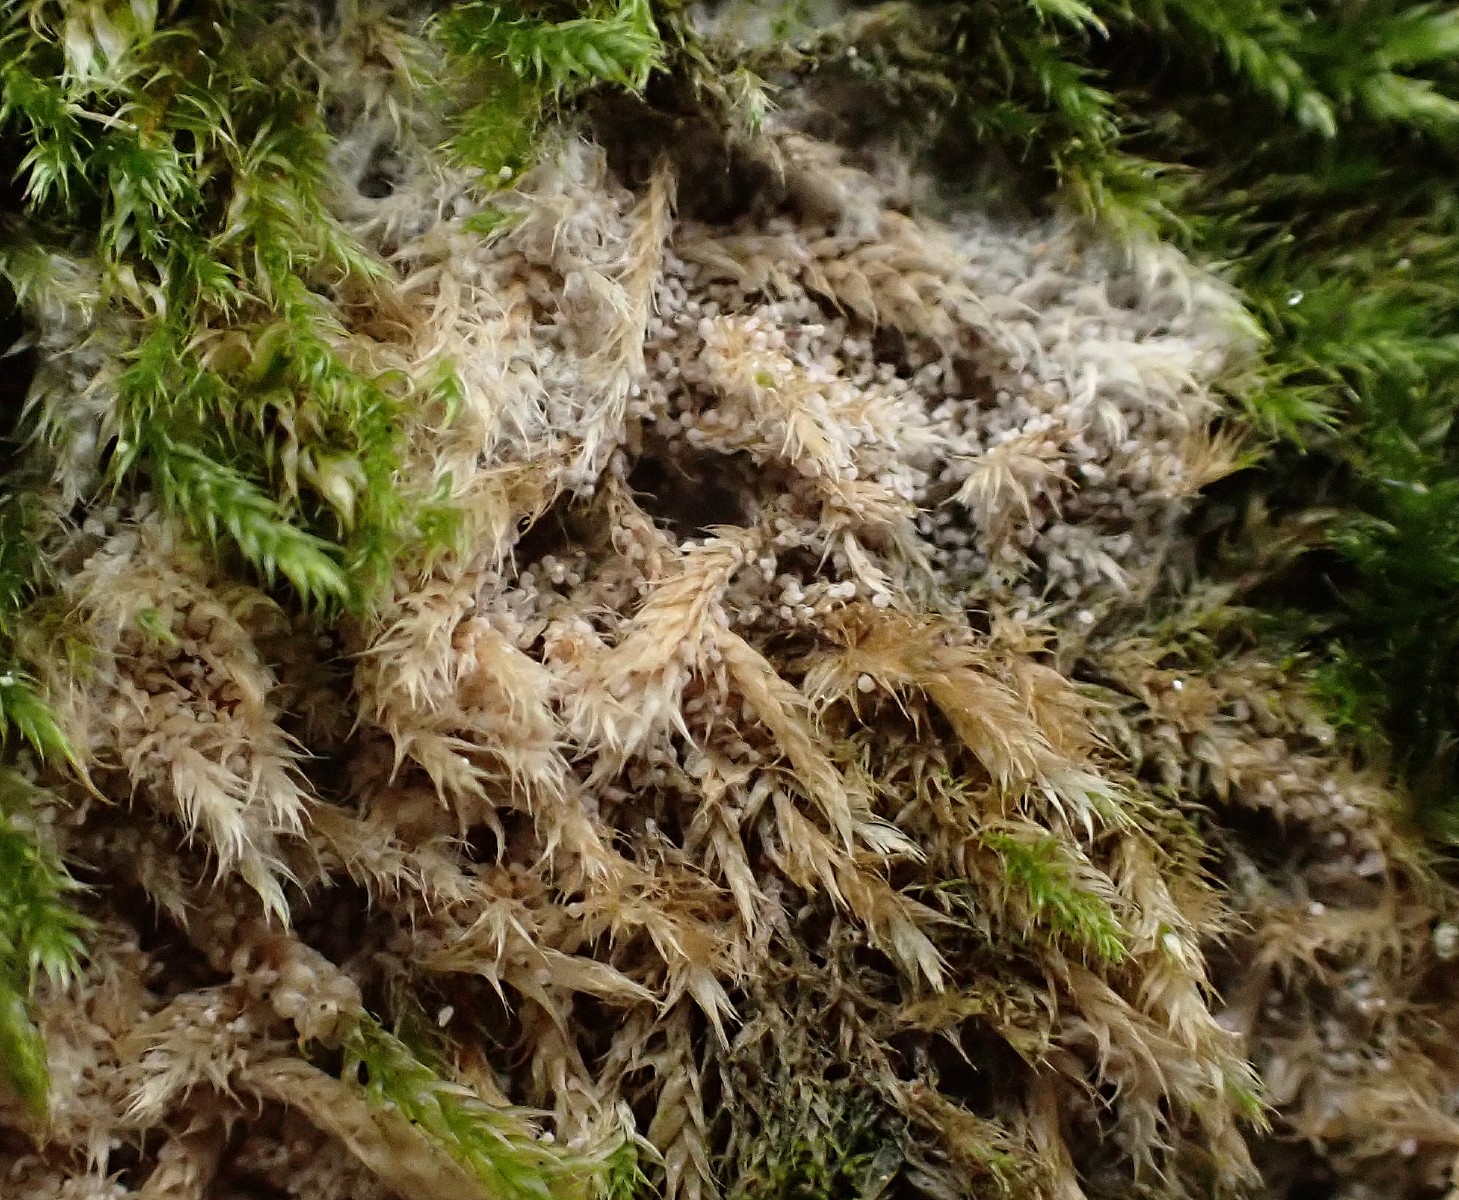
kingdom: Fungi
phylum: Basidiomycota
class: Agaricomycetes
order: Corticiales
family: Corticiaceae
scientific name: Corticiaceae
